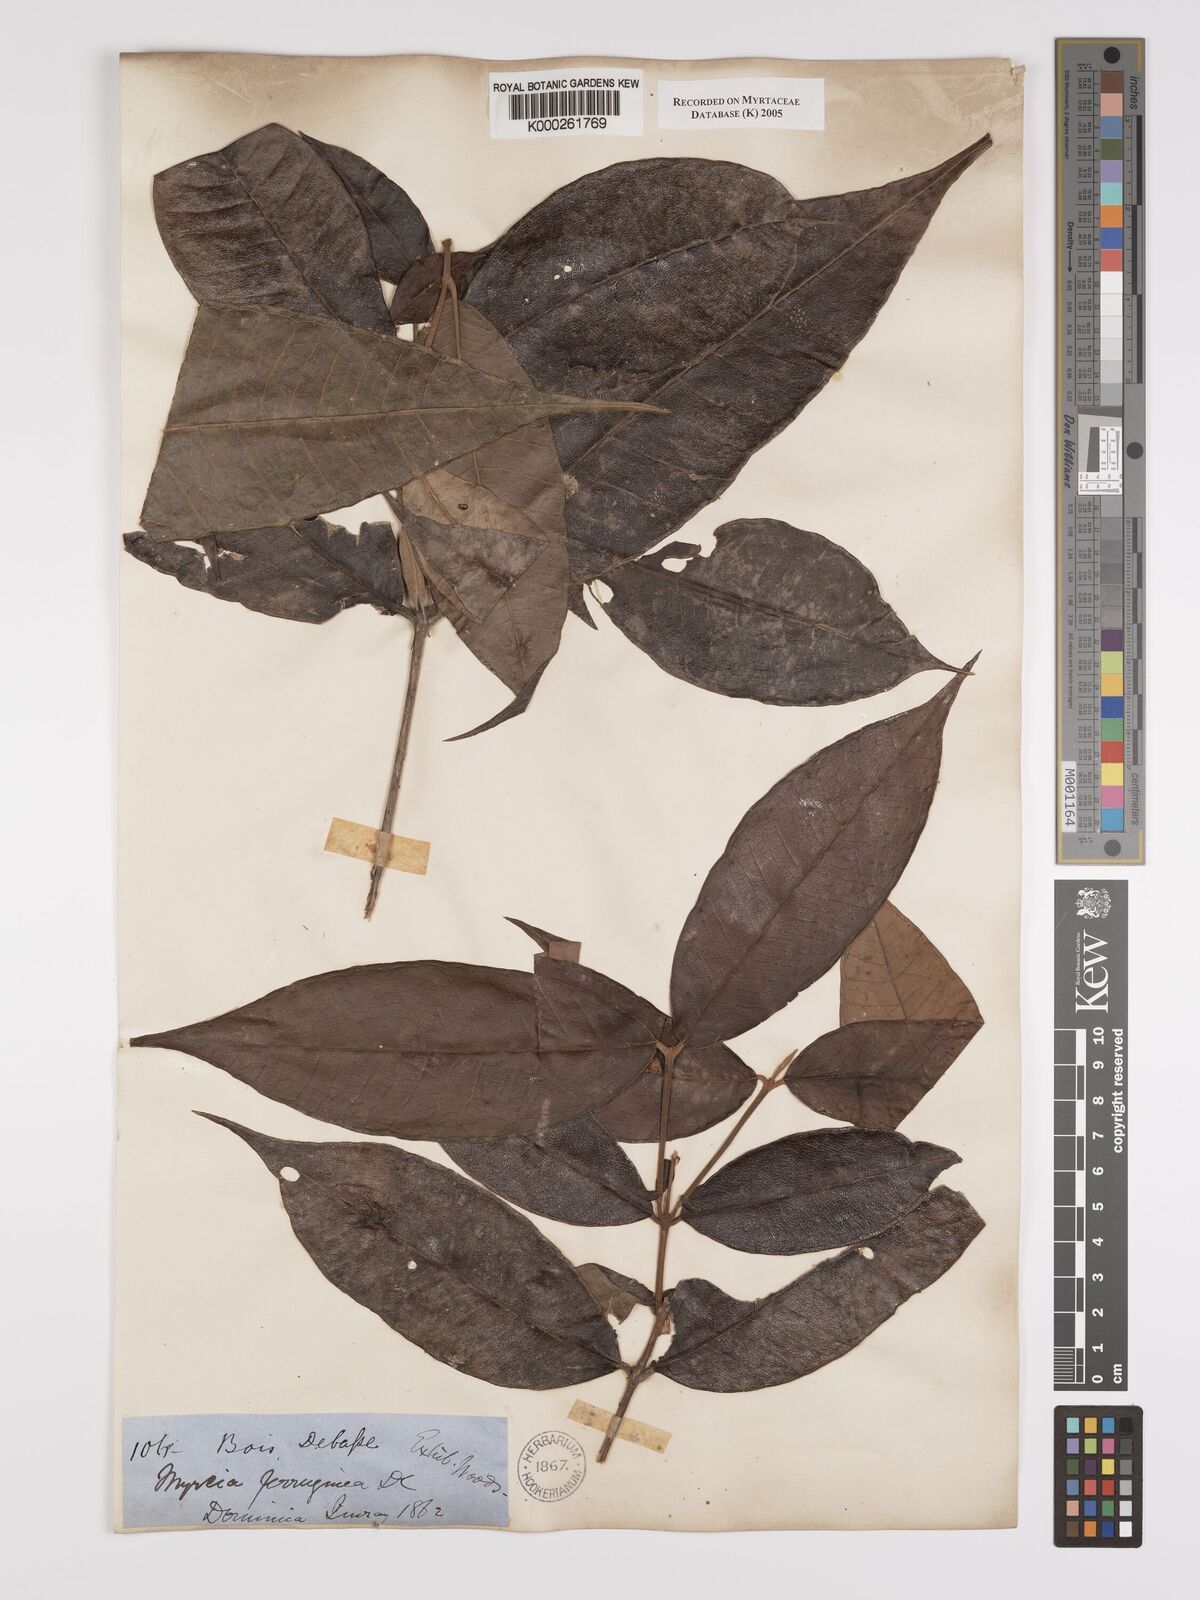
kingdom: Plantae
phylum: Tracheophyta
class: Magnoliopsida
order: Myrtales
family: Myrtaceae
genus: Myrcia
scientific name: Myrcia ferruginea
